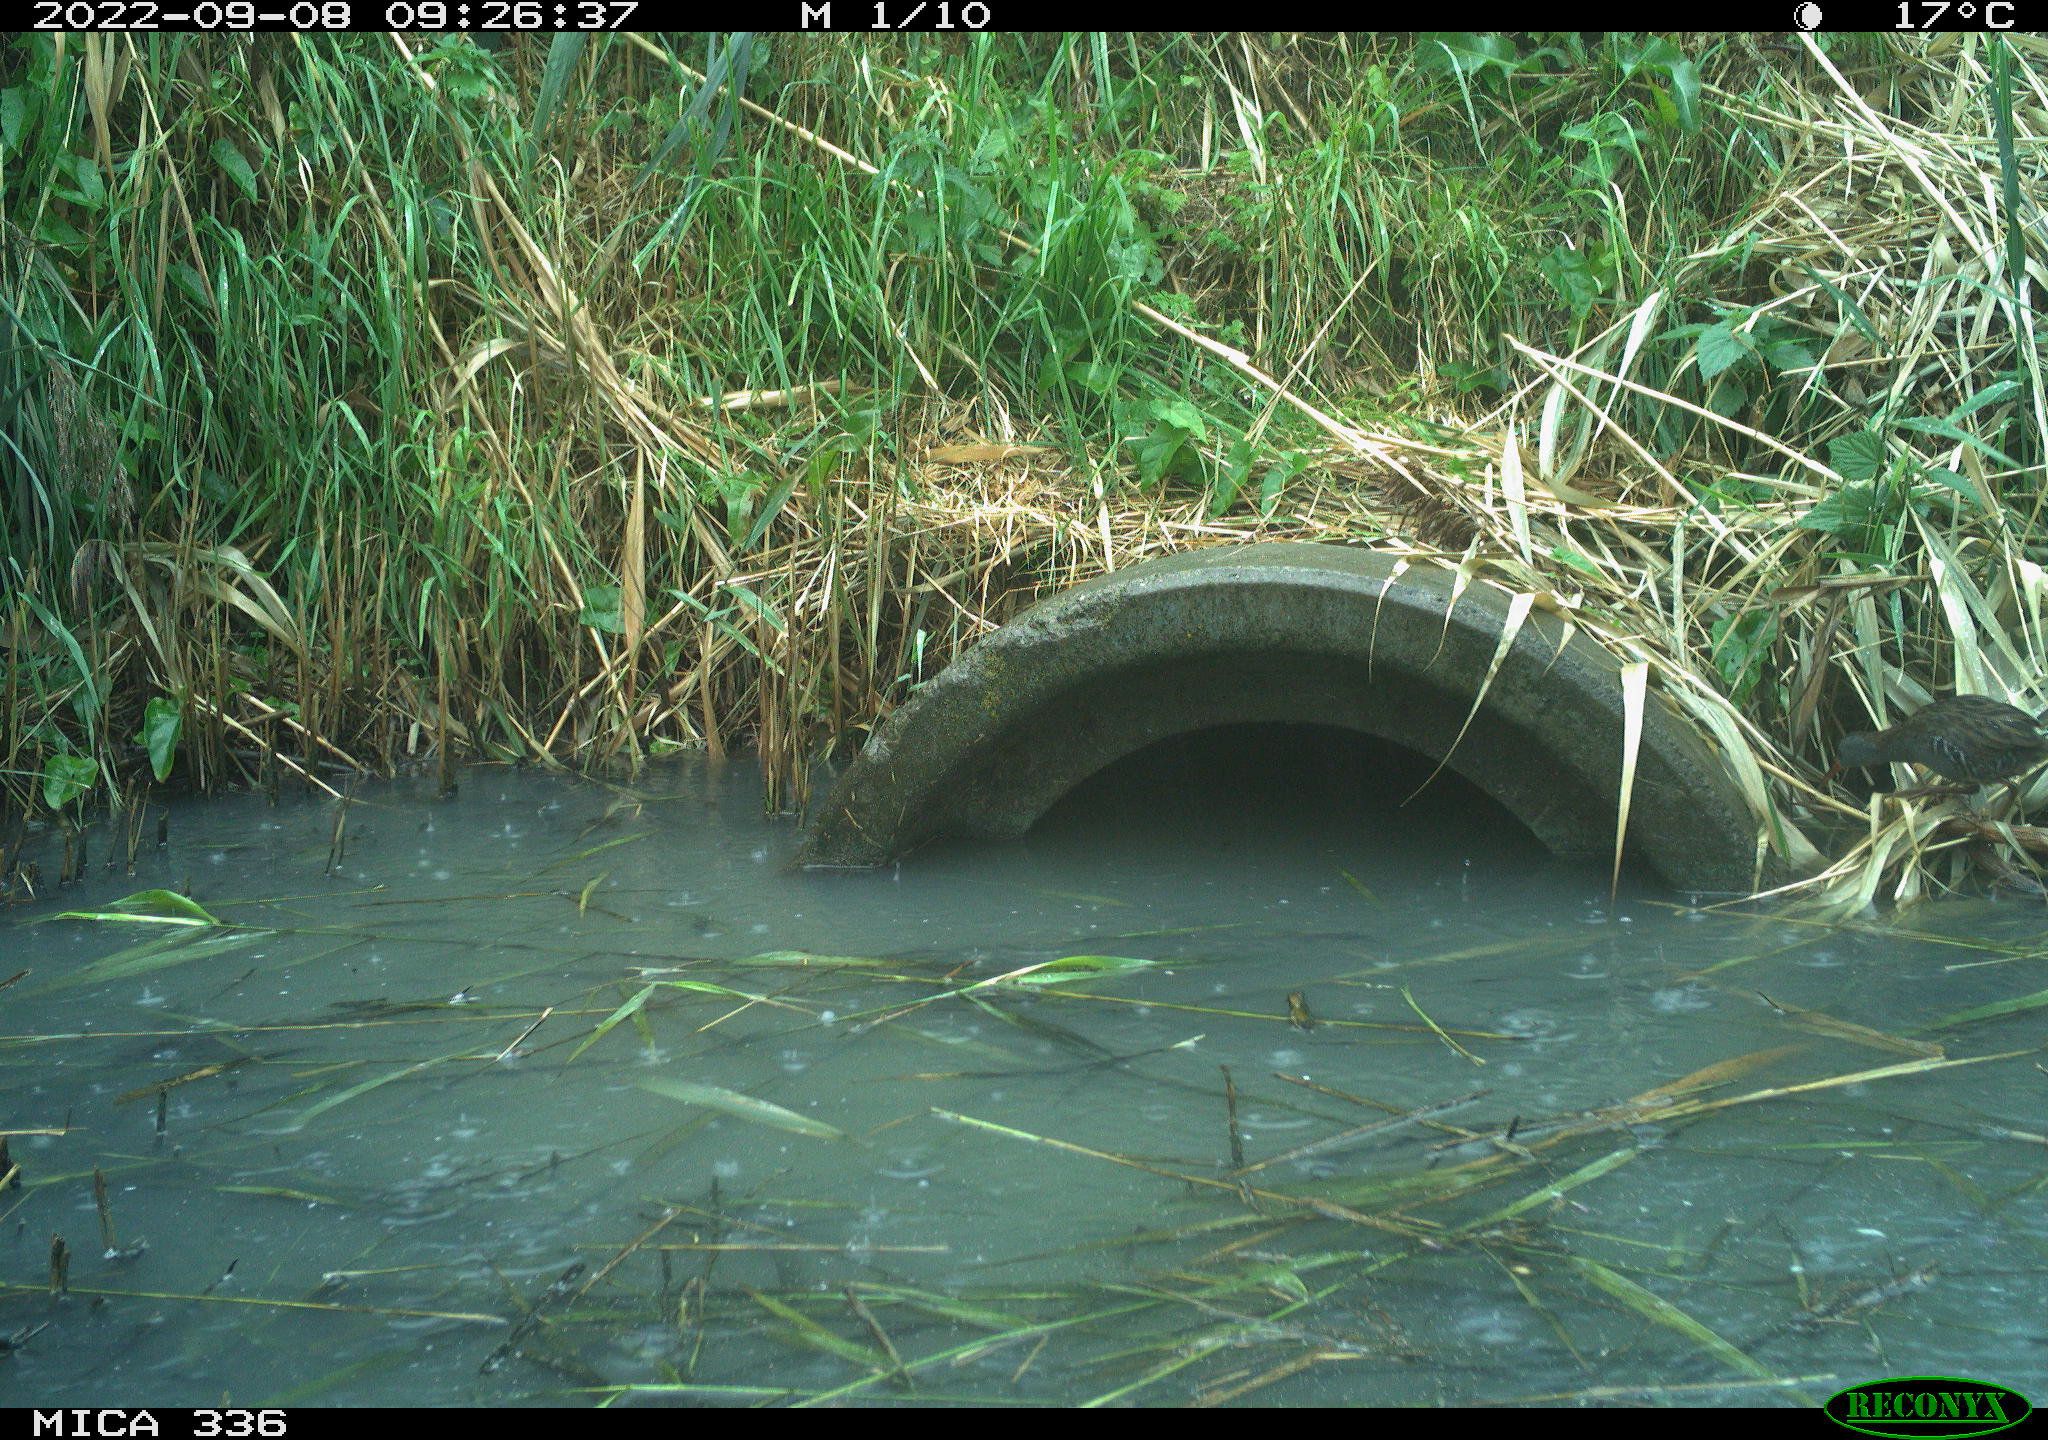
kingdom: Animalia
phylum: Chordata
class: Aves
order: Gruiformes
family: Rallidae
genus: Rallus
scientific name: Rallus aquaticus
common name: Water rail
